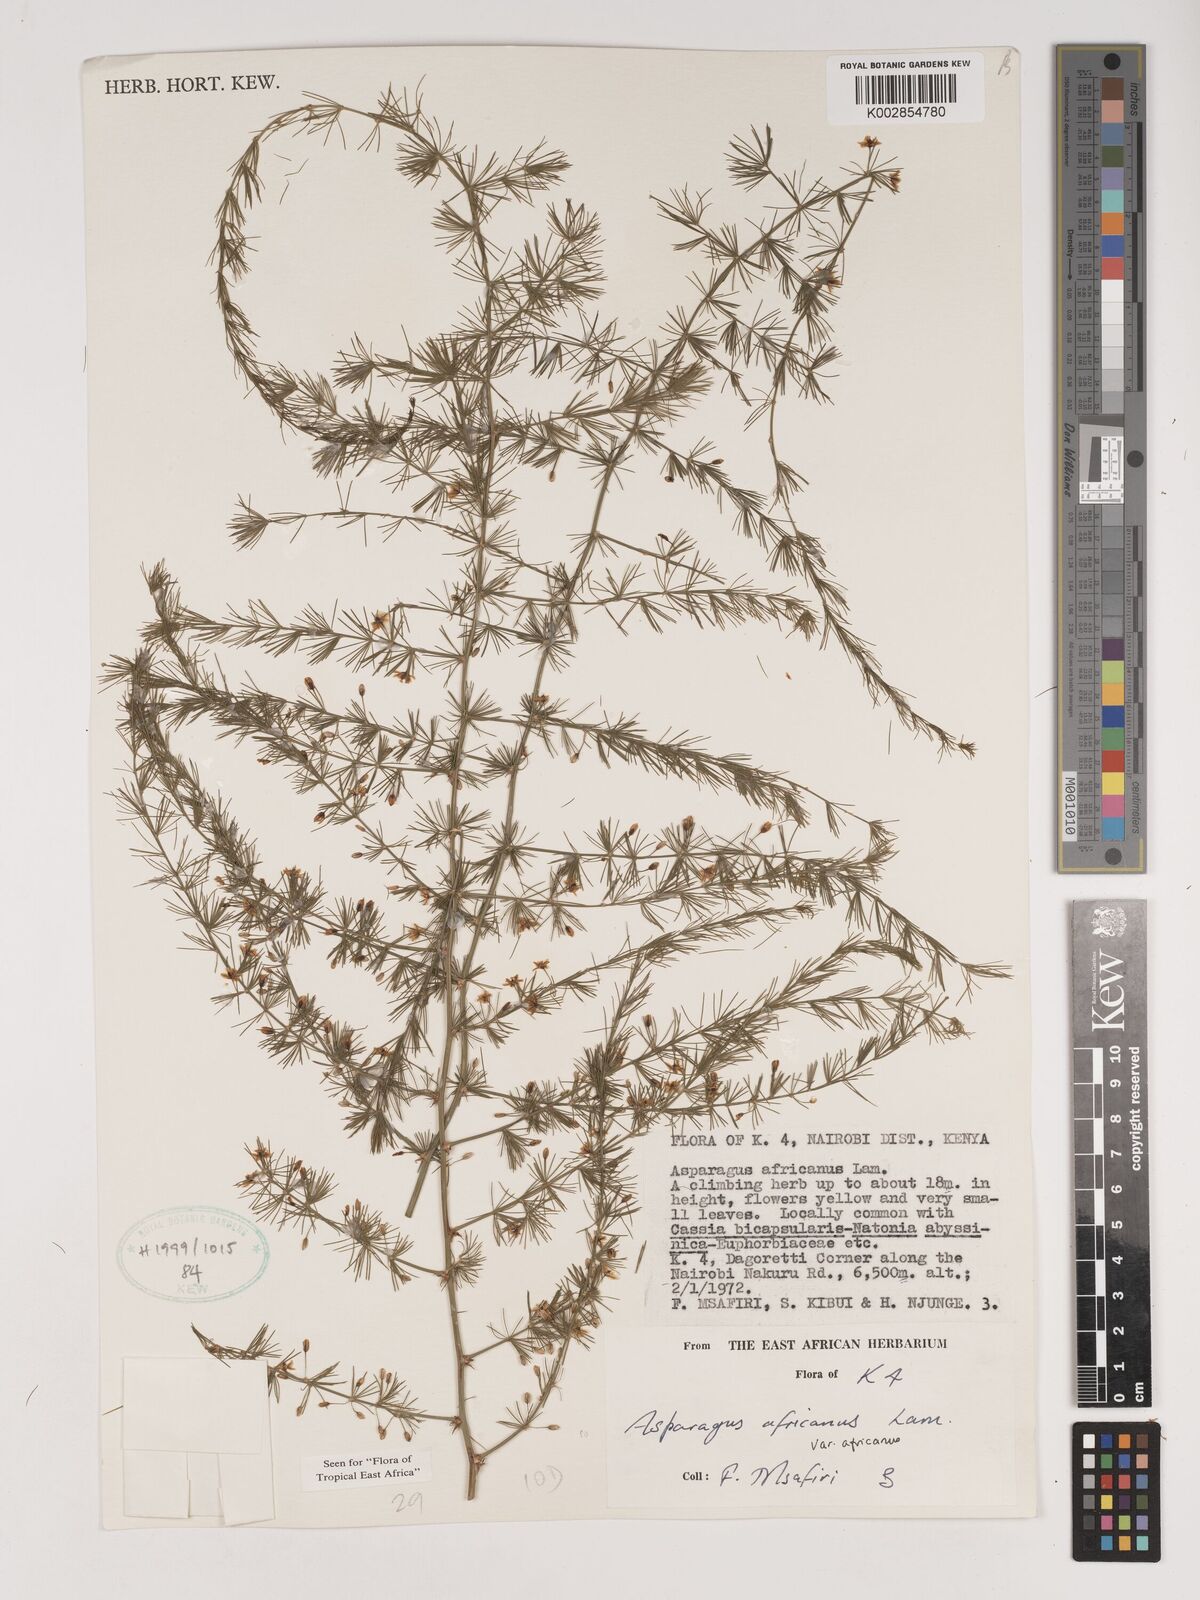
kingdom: Plantae
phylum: Tracheophyta
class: Liliopsida
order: Asparagales
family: Asparagaceae
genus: Asparagus
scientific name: Asparagus africanus
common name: Asparagus-fern
